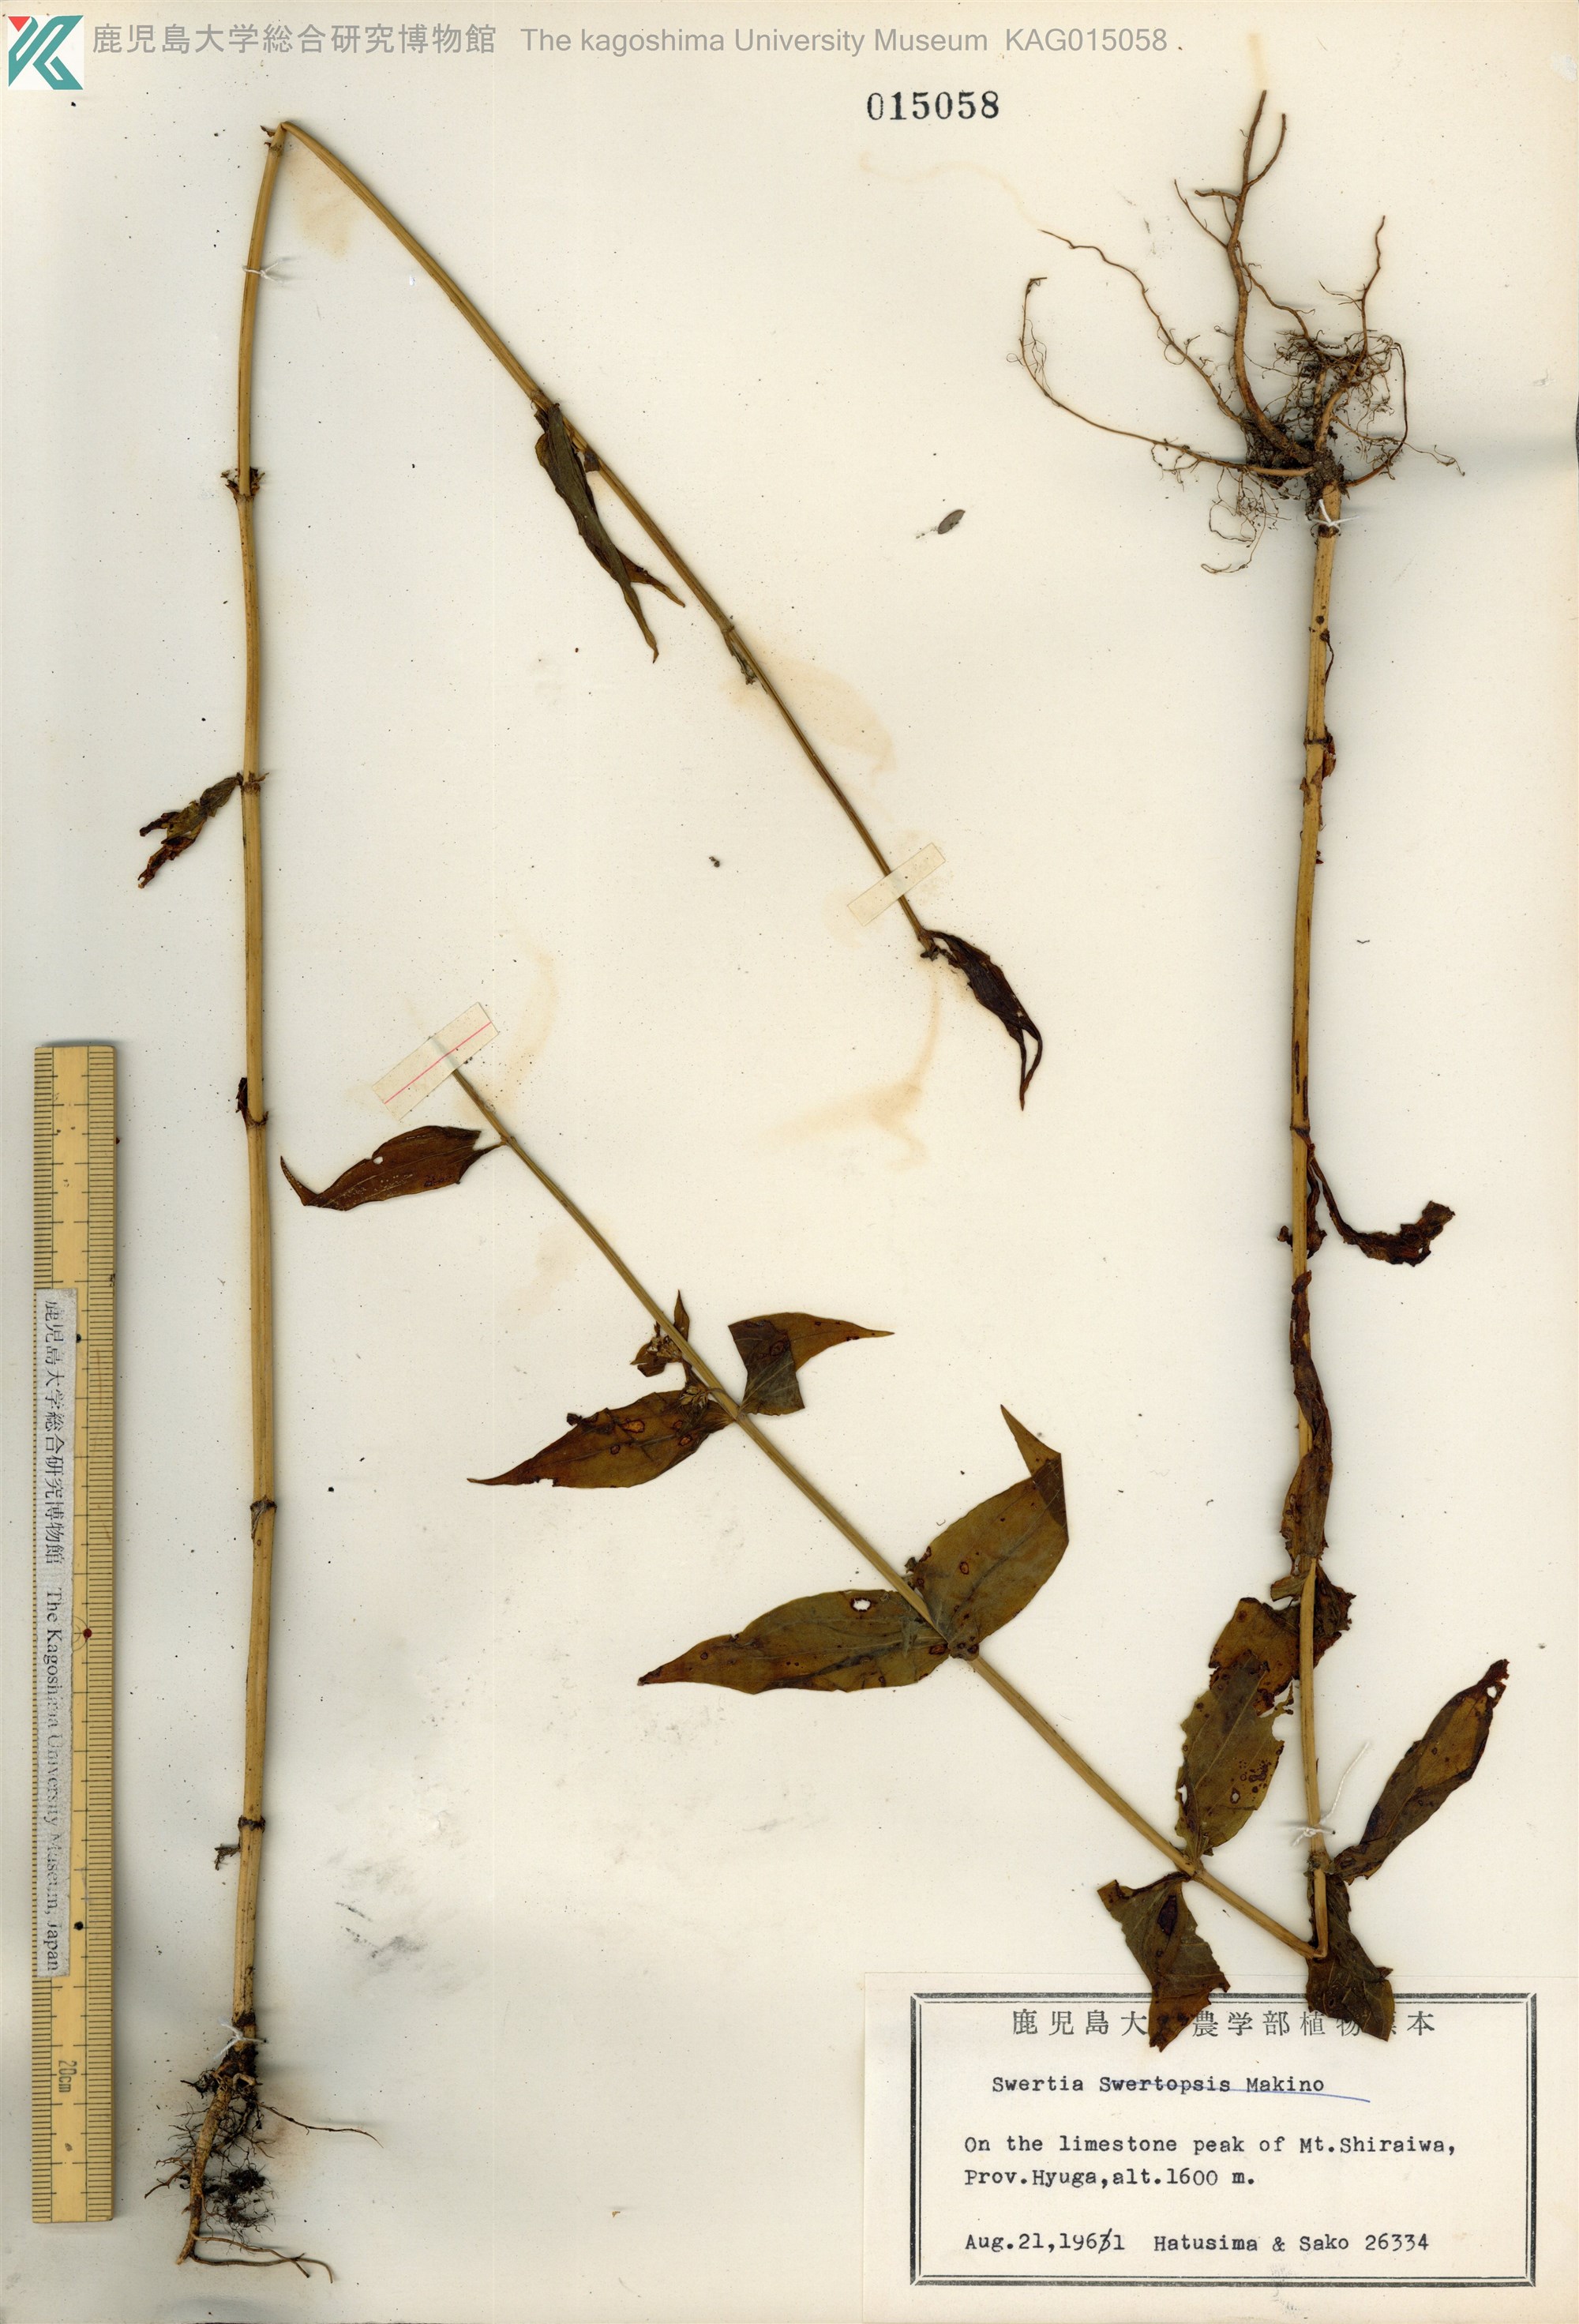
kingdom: Plantae
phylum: Tracheophyta
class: Magnoliopsida
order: Gentianales
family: Gentianaceae
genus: Swertia
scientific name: Swertia bimaculata
